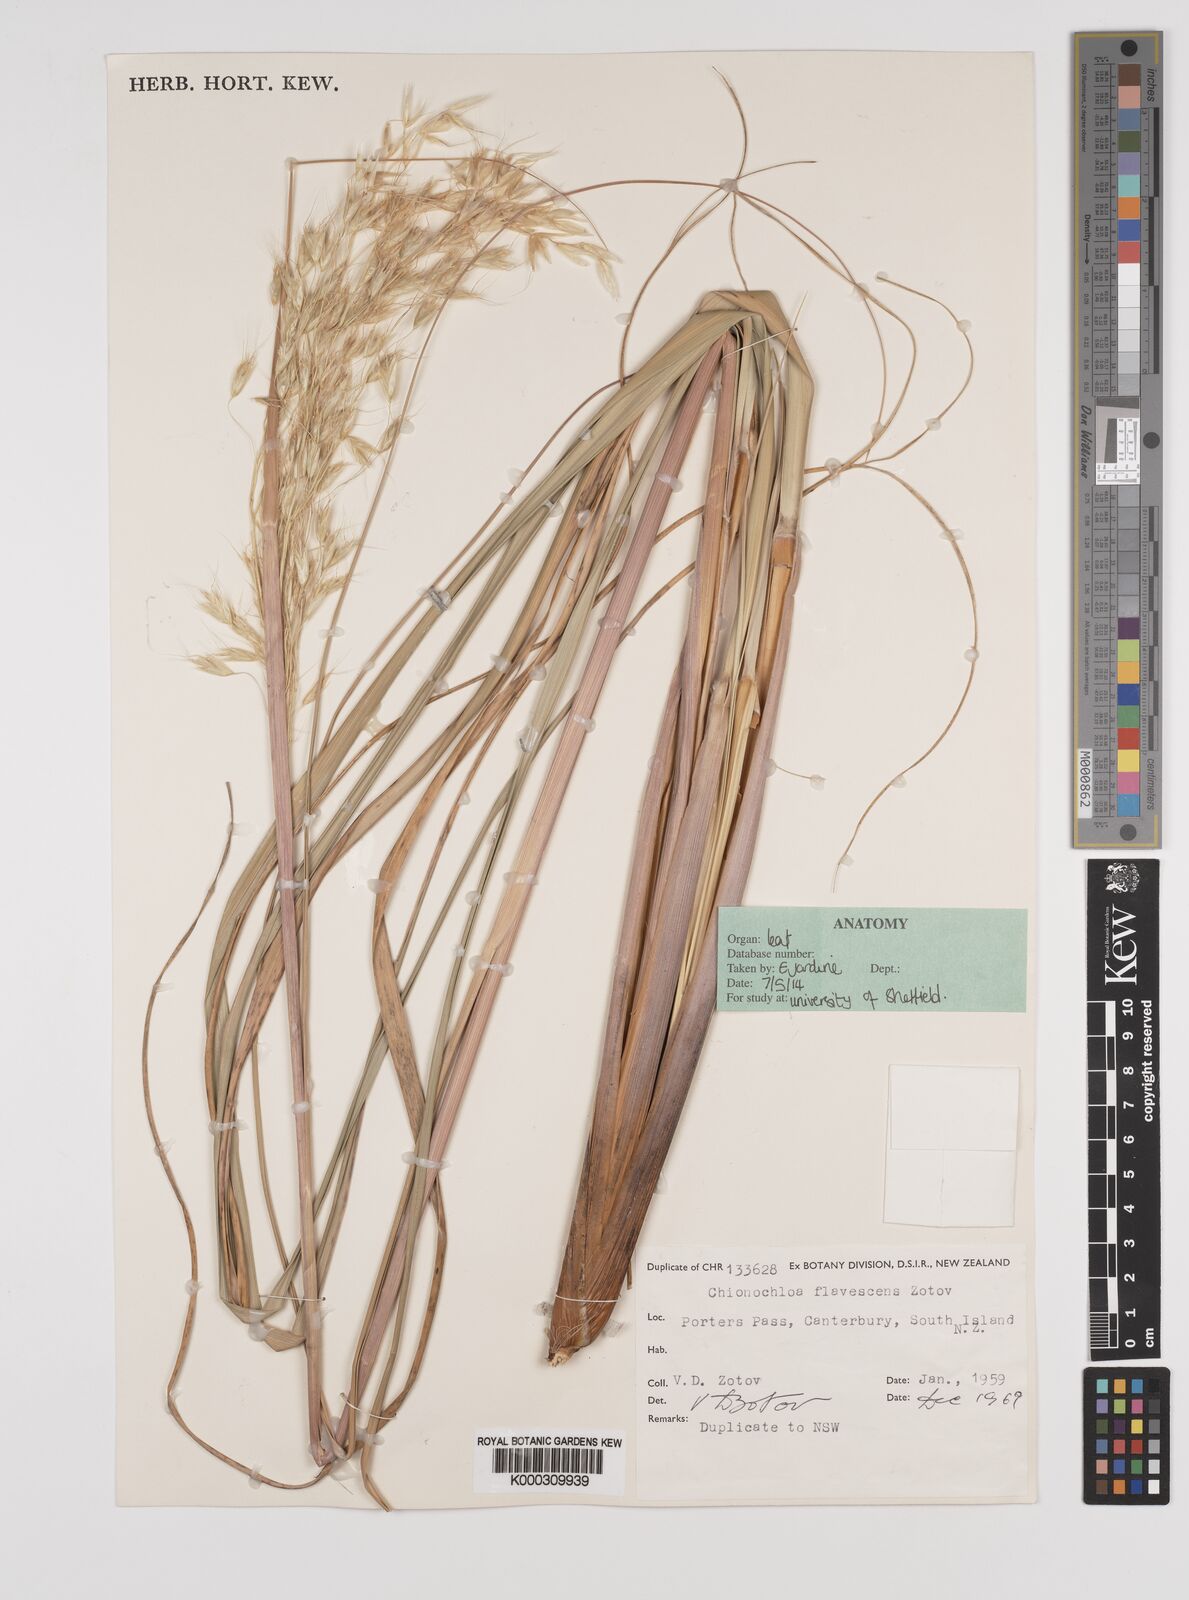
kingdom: Plantae
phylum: Tracheophyta
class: Liliopsida
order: Poales
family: Poaceae
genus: Chionochloa
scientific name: Chionochloa flavescens
